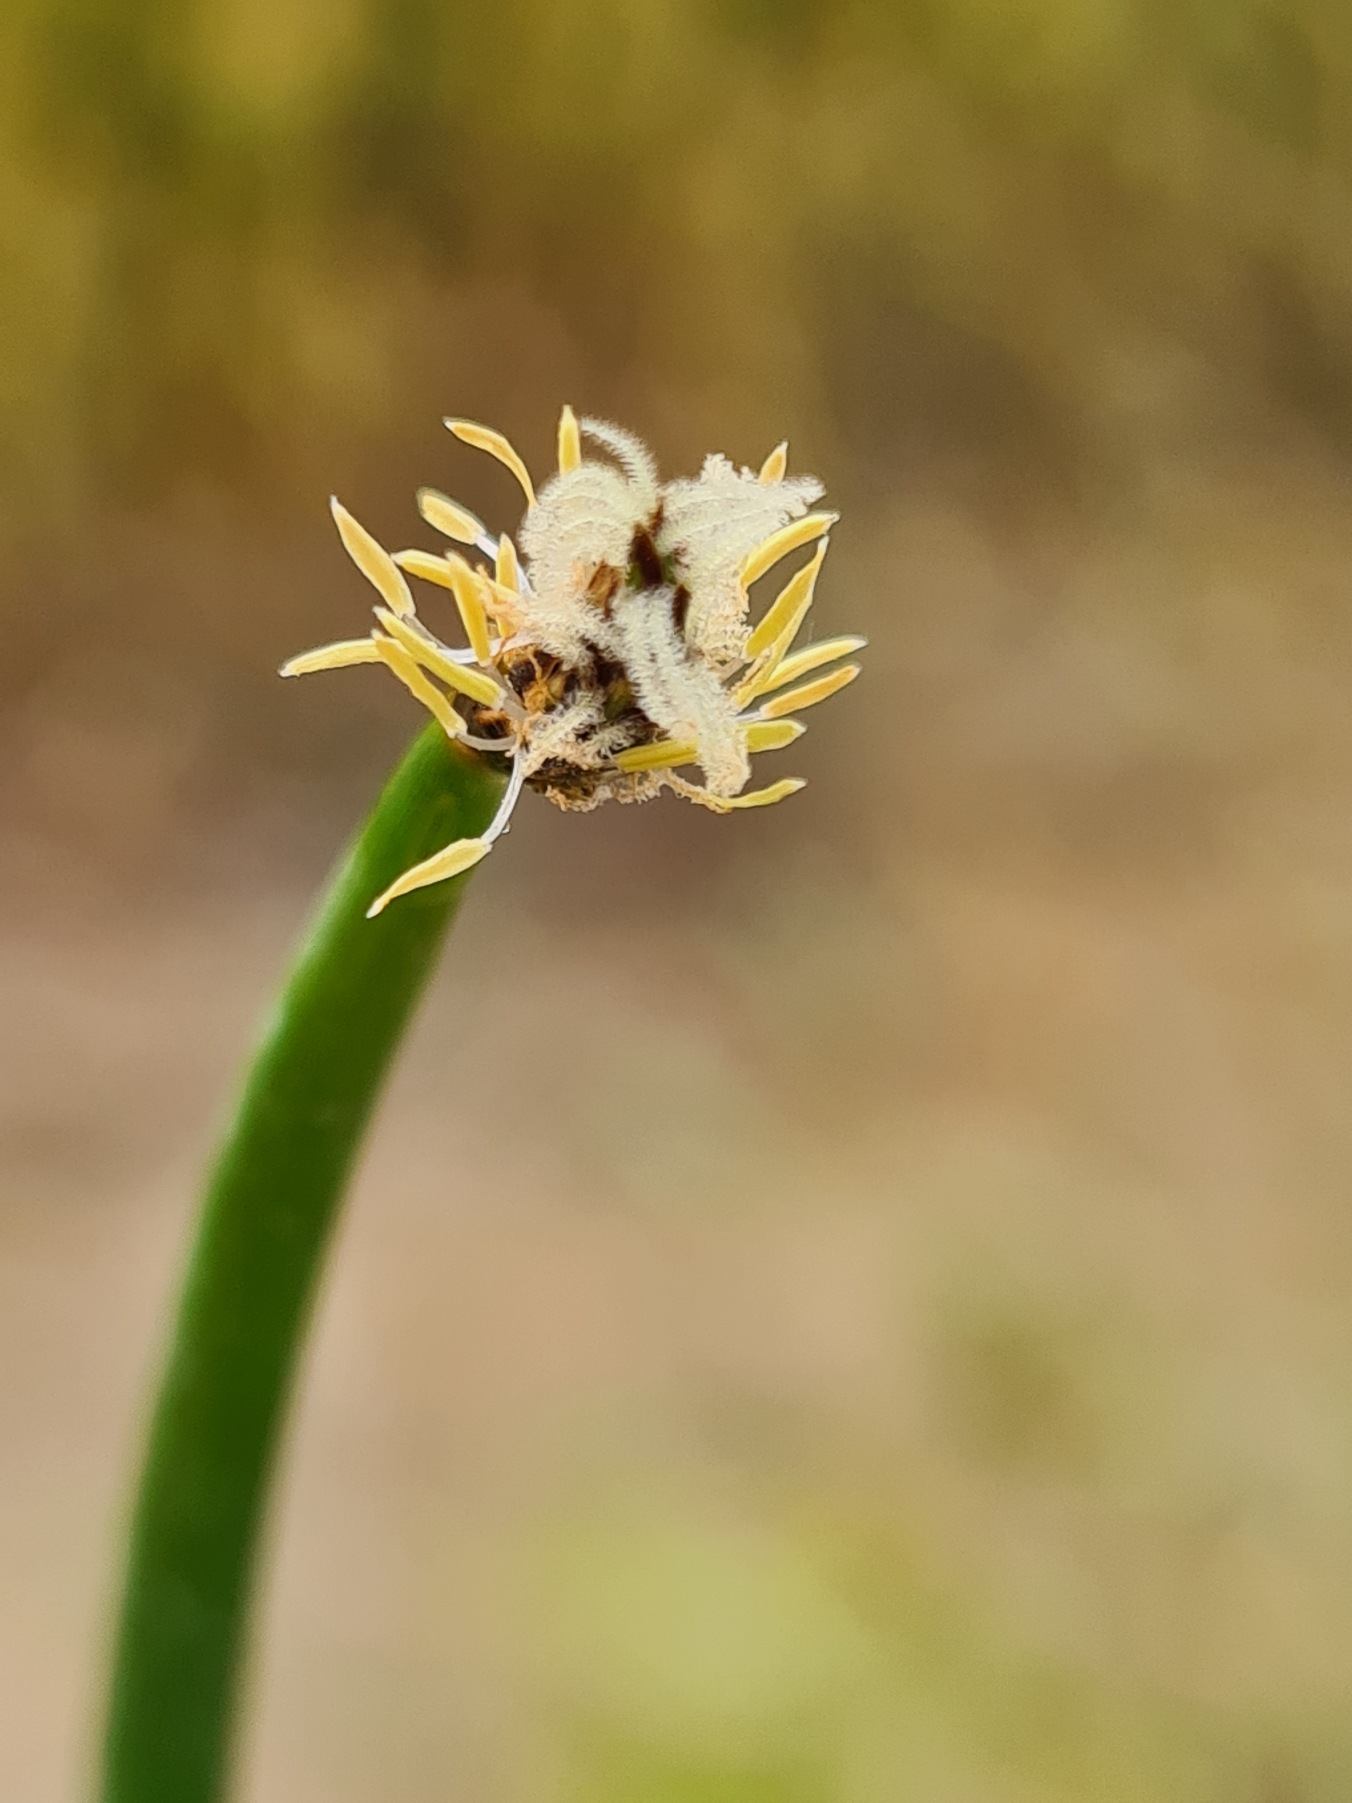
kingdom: Plantae
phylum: Tracheophyta
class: Liliopsida
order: Poales
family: Cyperaceae
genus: Eleocharis
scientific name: Eleocharis palustris
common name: Almindelig sumpstrå
